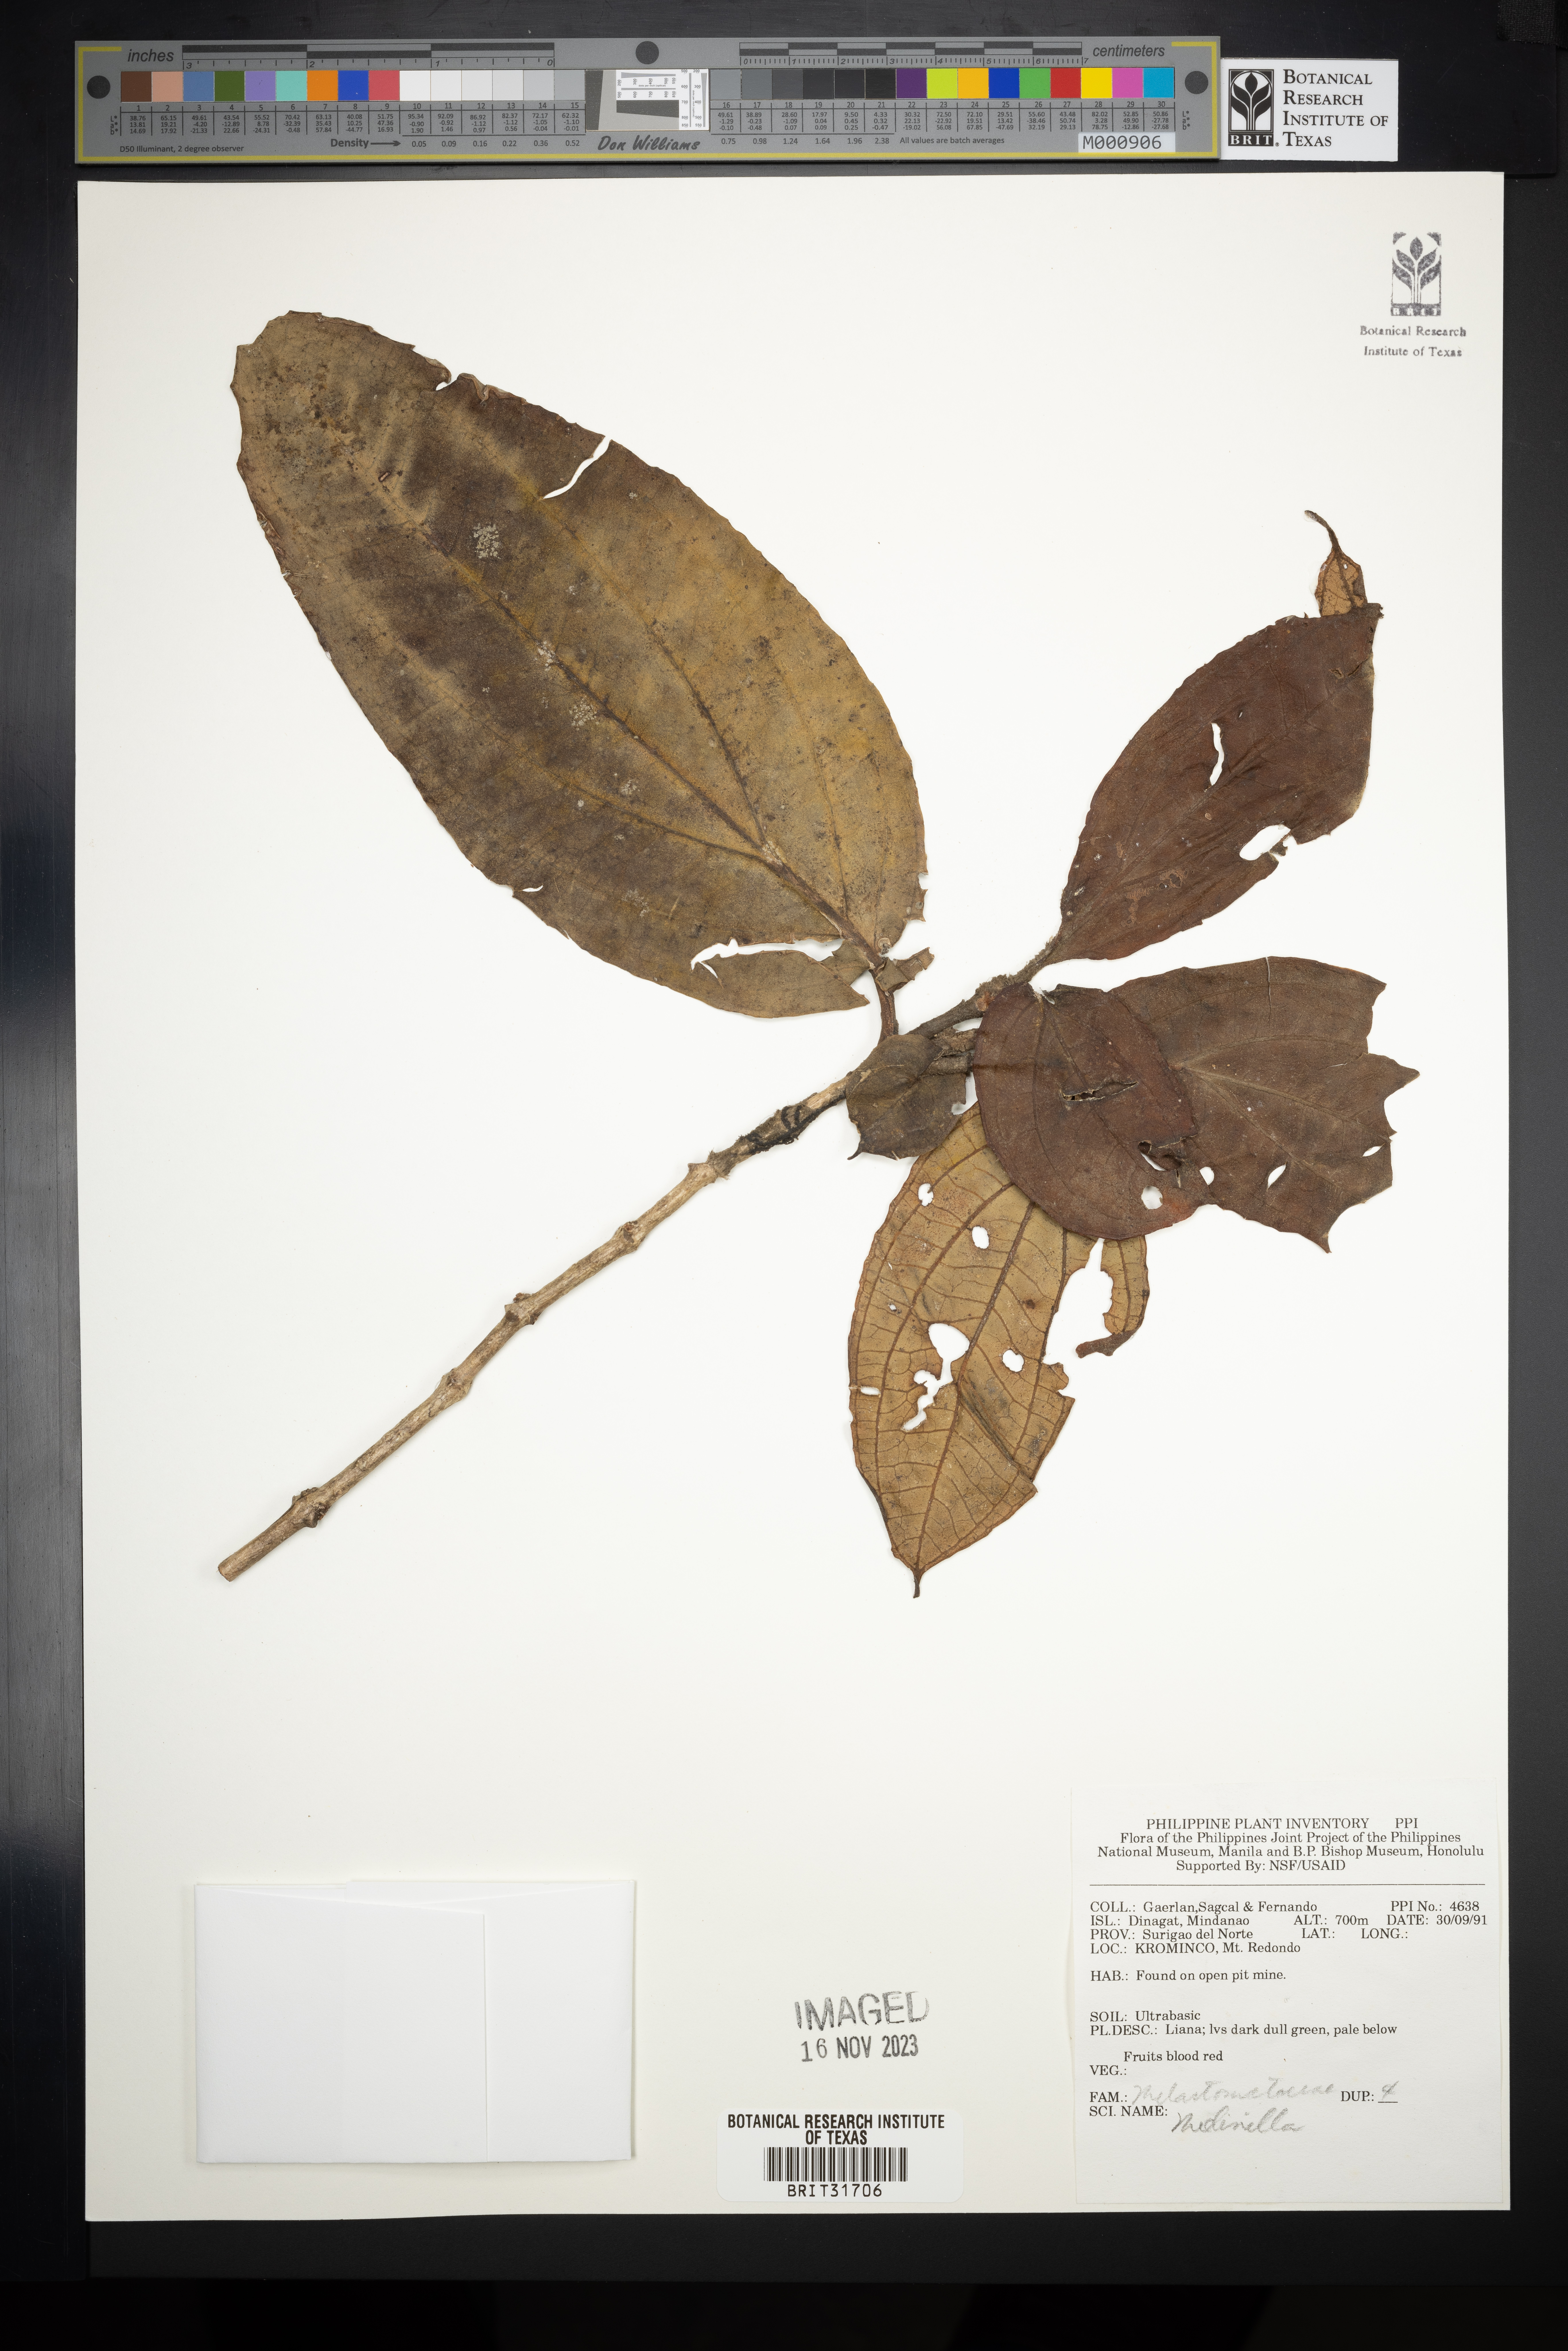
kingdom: Plantae
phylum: Tracheophyta
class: Magnoliopsida
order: Myrtales
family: Melastomataceae
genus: Medinilla
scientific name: Medinilla
